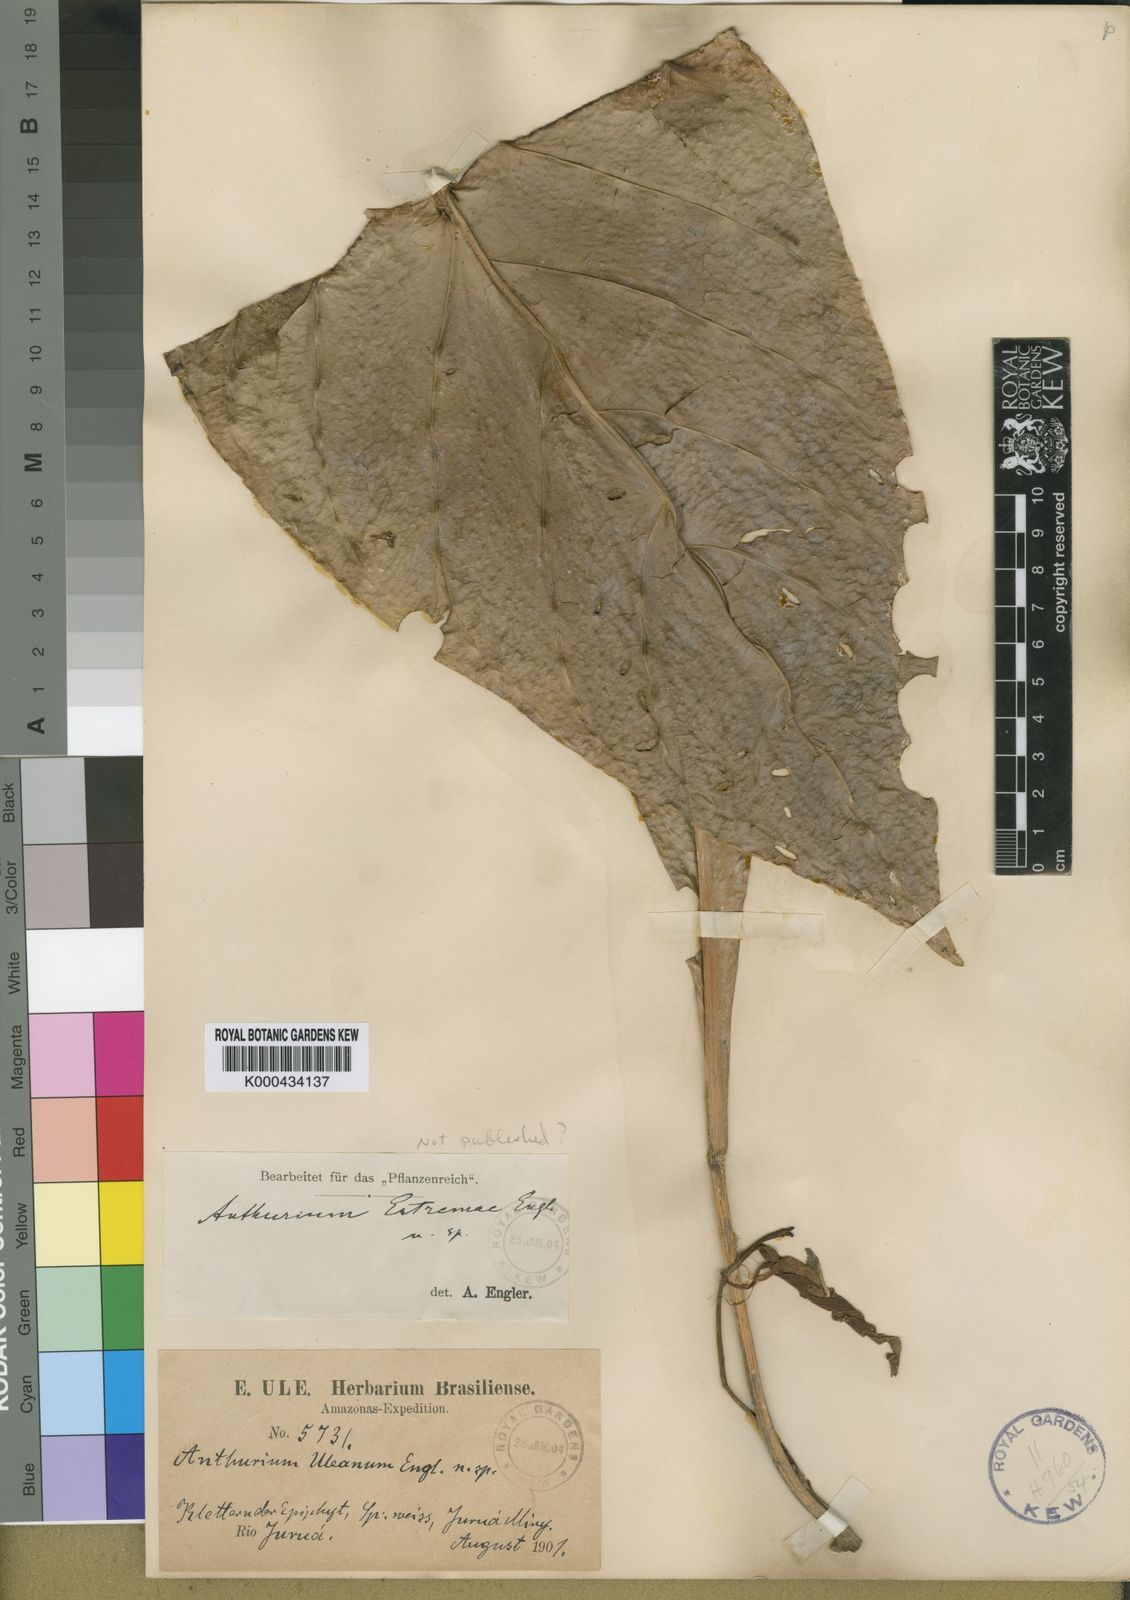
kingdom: Plantae
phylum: Tracheophyta
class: Liliopsida
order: Alismatales
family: Araceae
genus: Anthurium
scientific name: Anthurium uleanum
